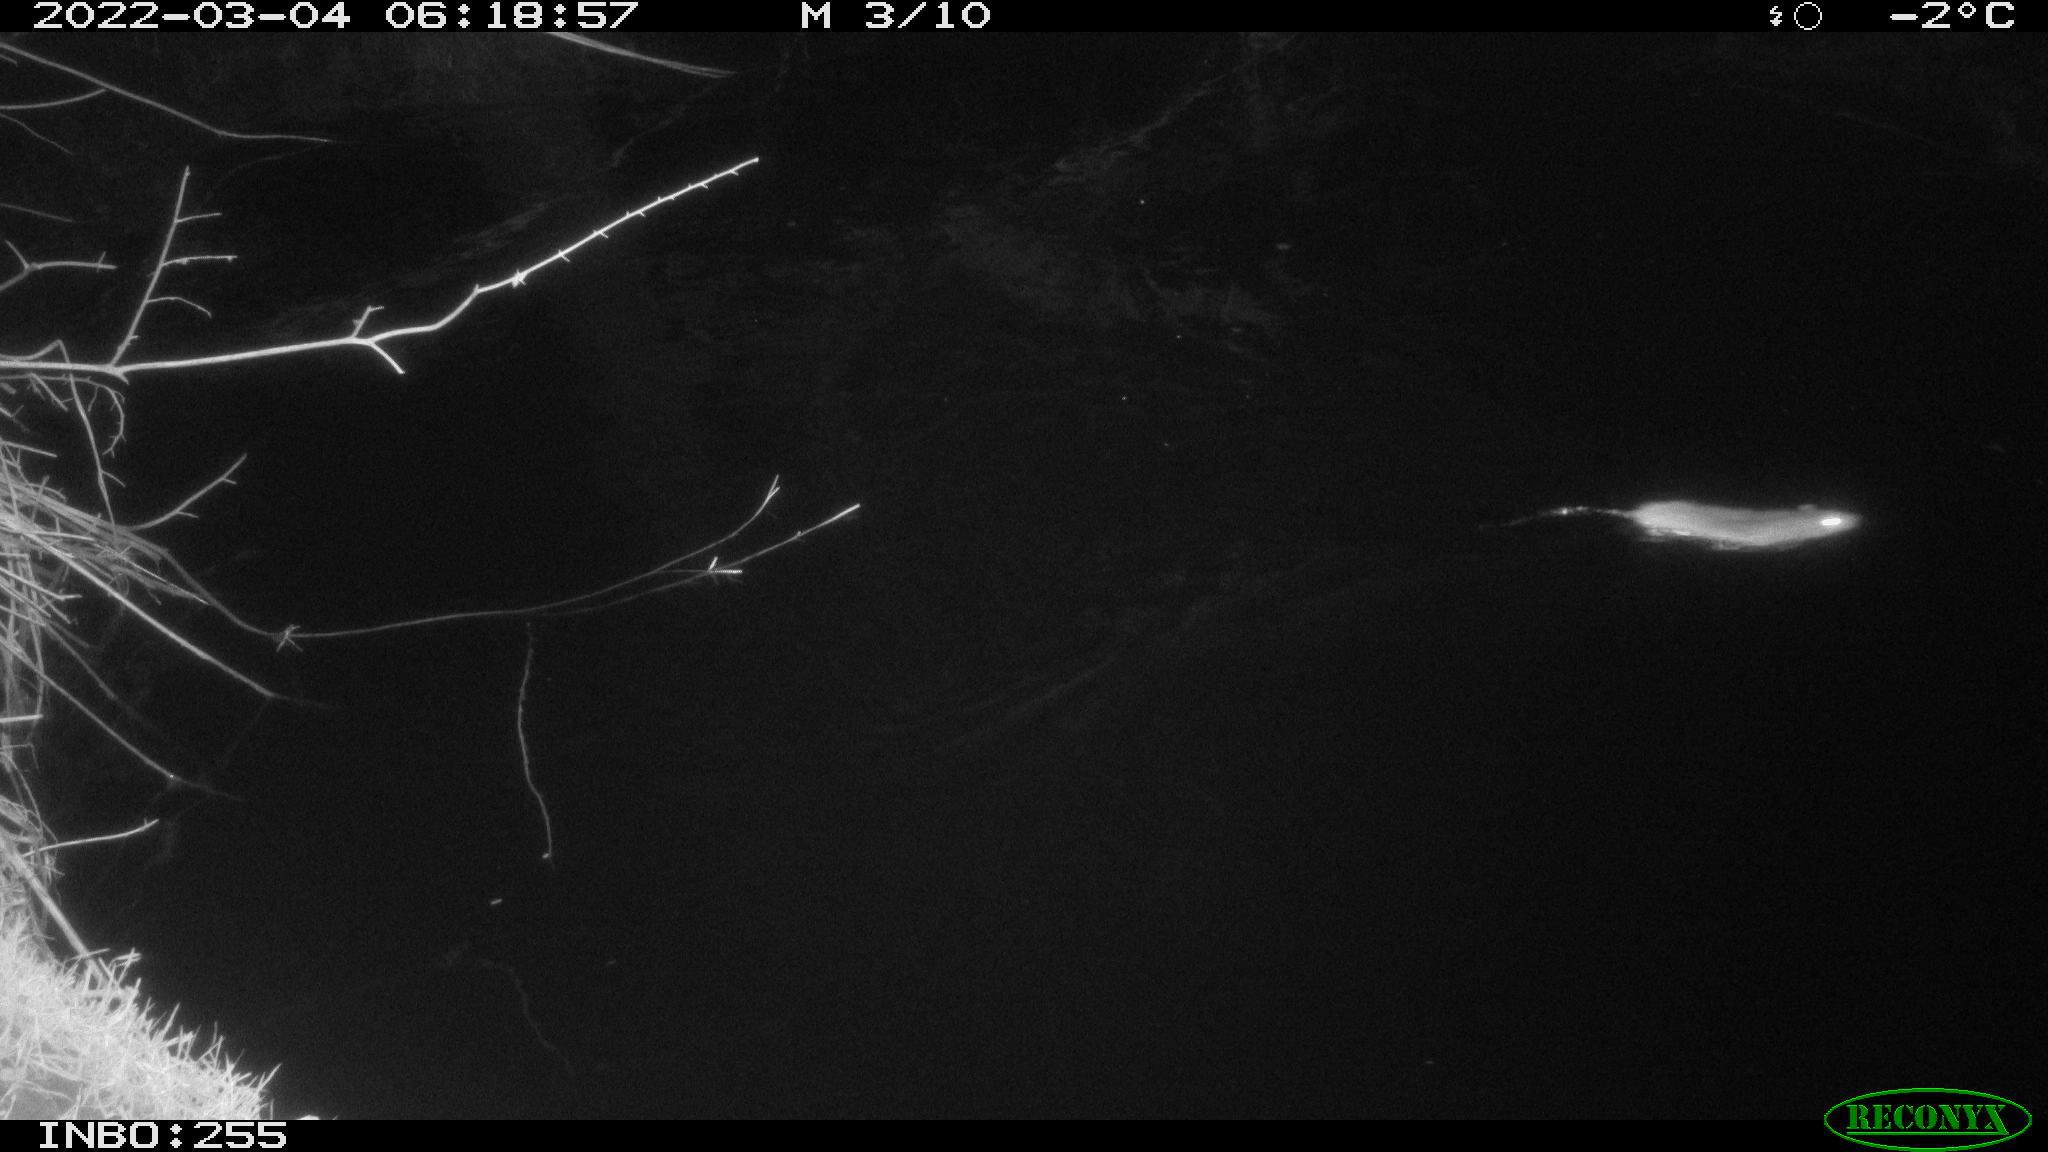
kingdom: Animalia
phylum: Chordata
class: Mammalia
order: Rodentia
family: Muridae
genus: Rattus
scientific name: Rattus norvegicus
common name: Brown rat
